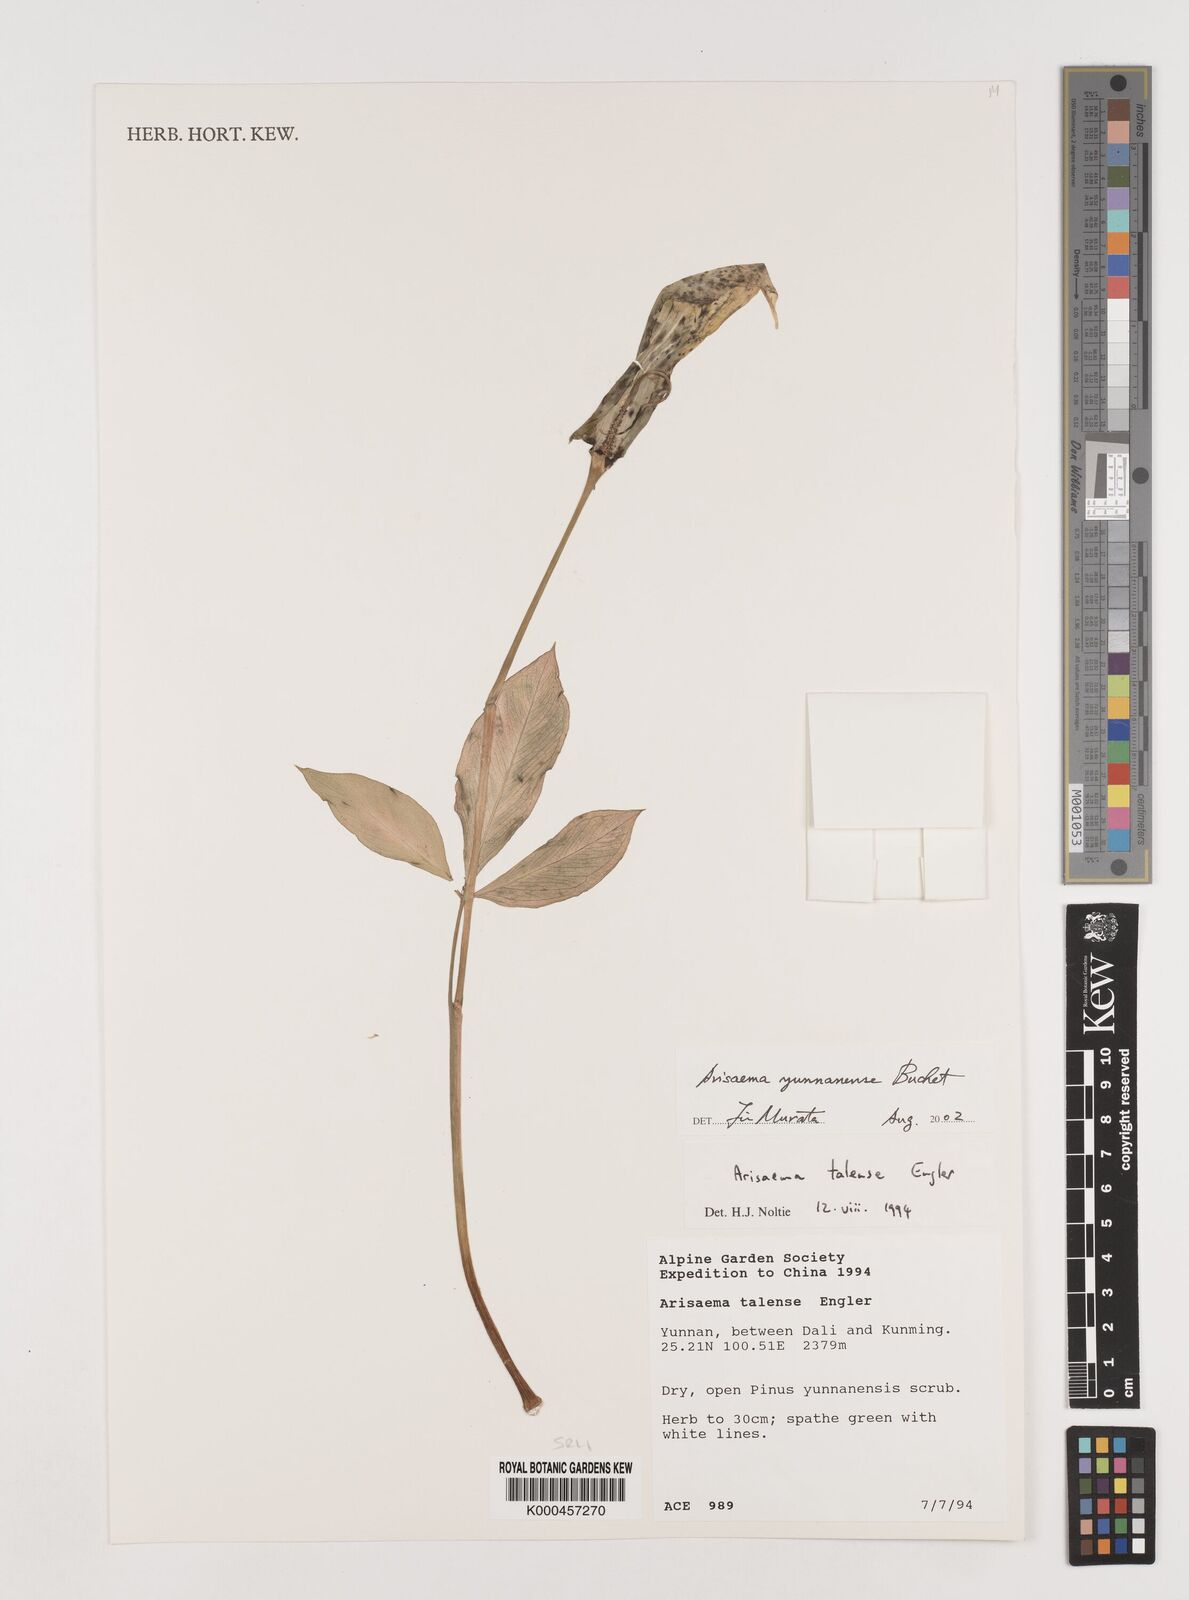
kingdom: Plantae
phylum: Tracheophyta
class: Liliopsida
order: Alismatales
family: Araceae
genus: Arisaema
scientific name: Arisaema yunnanense
